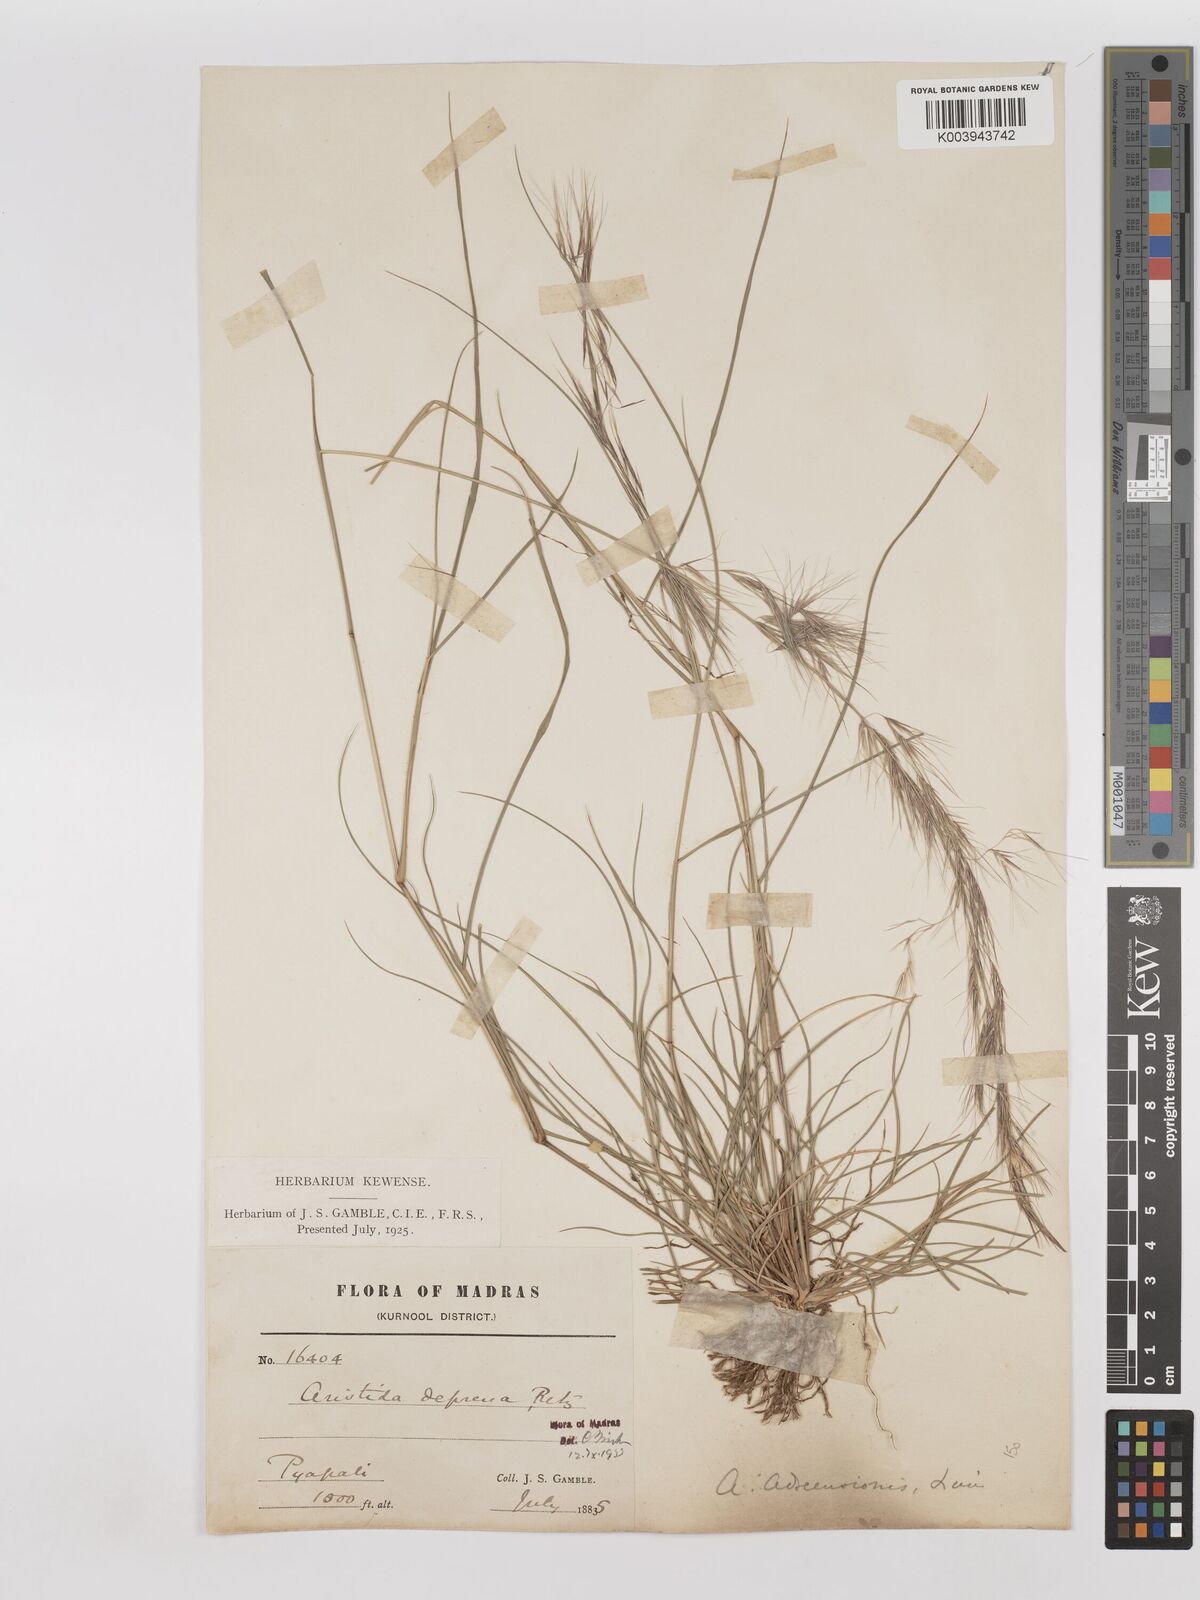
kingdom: Plantae
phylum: Tracheophyta
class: Liliopsida
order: Poales
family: Poaceae
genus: Aristida
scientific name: Aristida adscensionis
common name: Sixweeks threeawn
